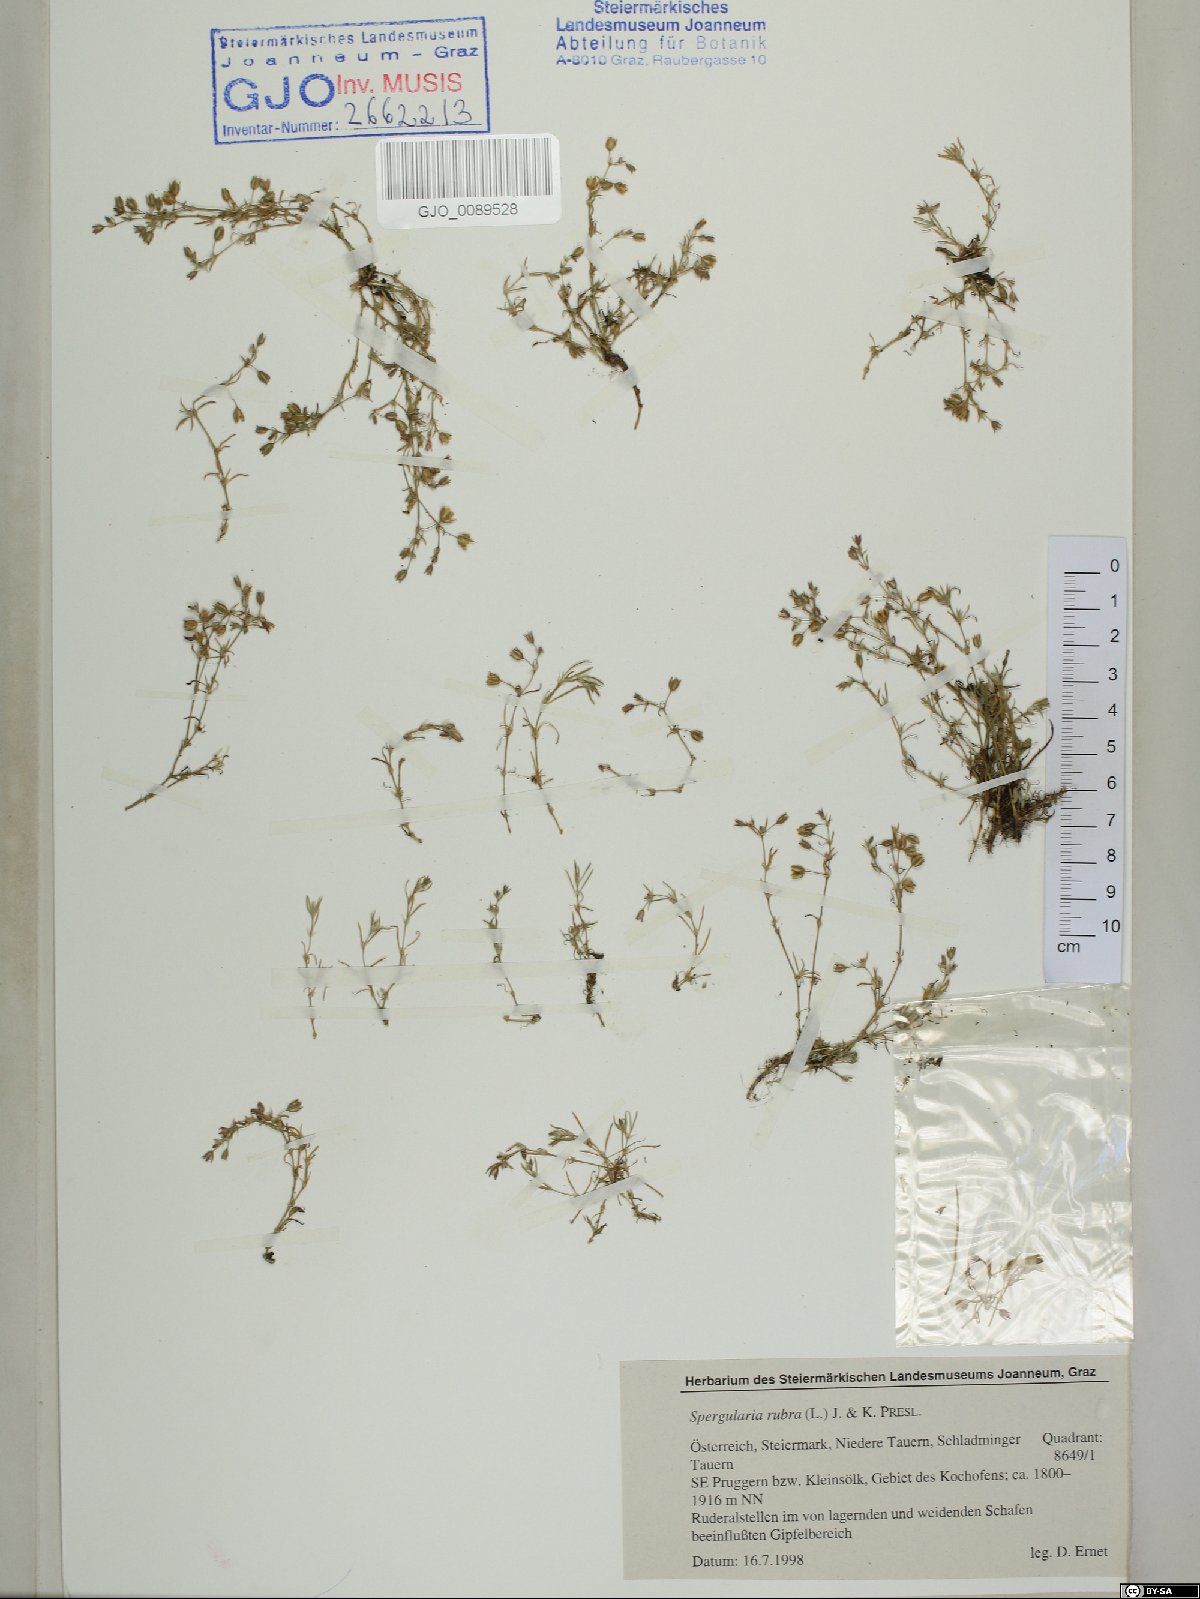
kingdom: Plantae
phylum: Tracheophyta
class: Magnoliopsida
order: Caryophyllales
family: Caryophyllaceae
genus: Spergularia
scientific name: Spergularia rubra
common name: Red sand-spurrey
